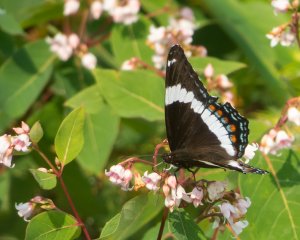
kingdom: Animalia
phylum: Arthropoda
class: Insecta
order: Lepidoptera
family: Nymphalidae
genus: Limenitis
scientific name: Limenitis arthemis
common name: Red-spotted Admiral
